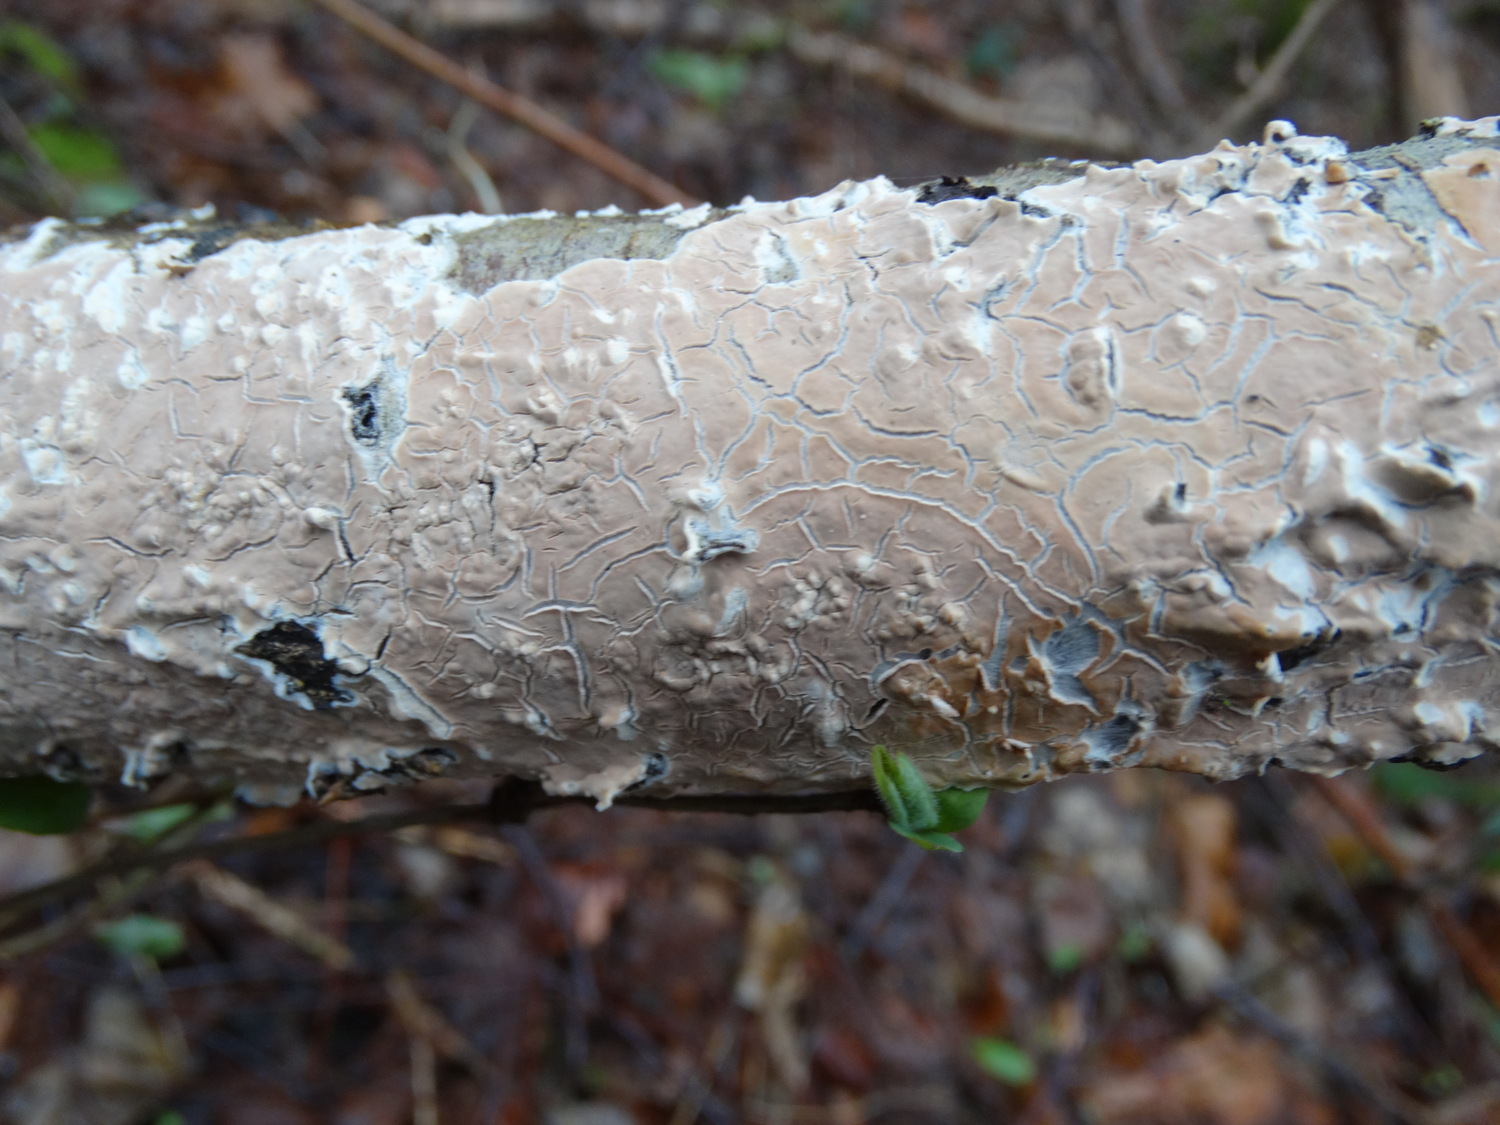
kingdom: Fungi
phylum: Basidiomycota
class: Agaricomycetes
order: Agaricales
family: Physalacriaceae
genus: Cylindrobasidium
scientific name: Cylindrobasidium evolvens
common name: sprækkehinde
